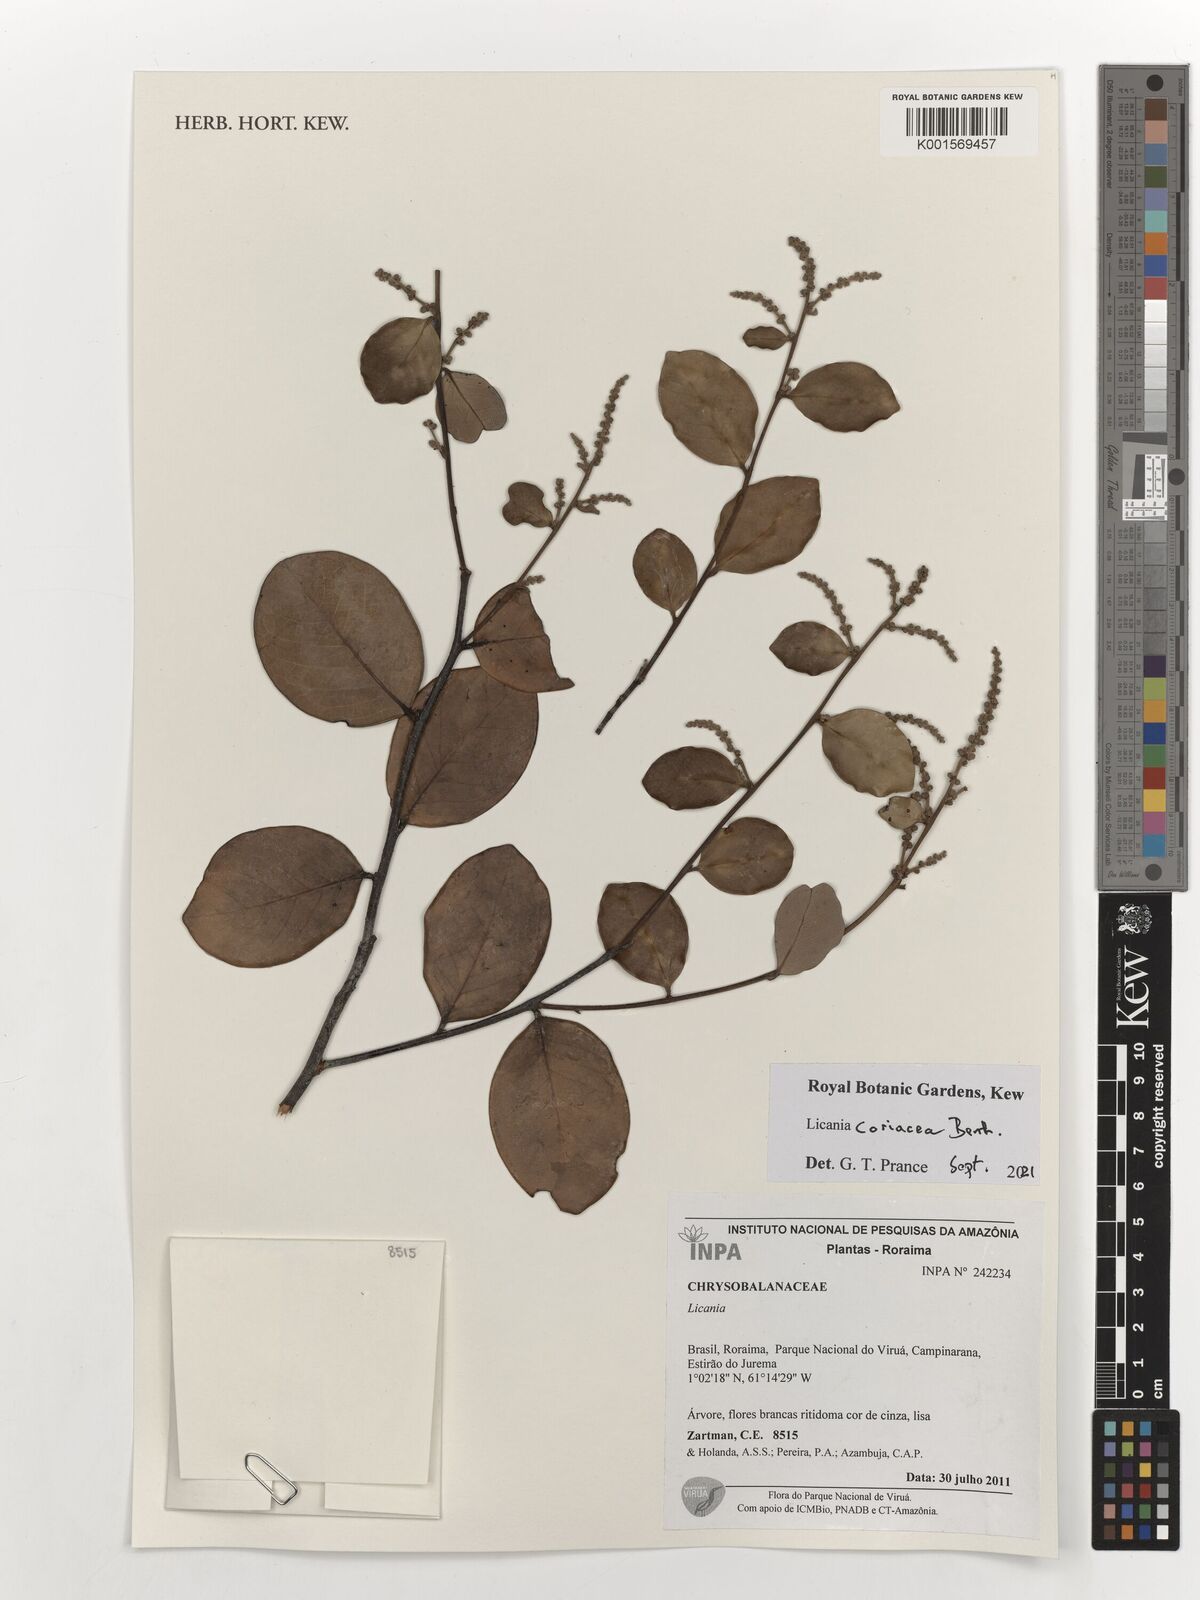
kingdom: Plantae
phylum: Tracheophyta
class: Magnoliopsida
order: Malpighiales
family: Chrysobalanaceae
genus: Licania
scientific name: Licania coriacea
